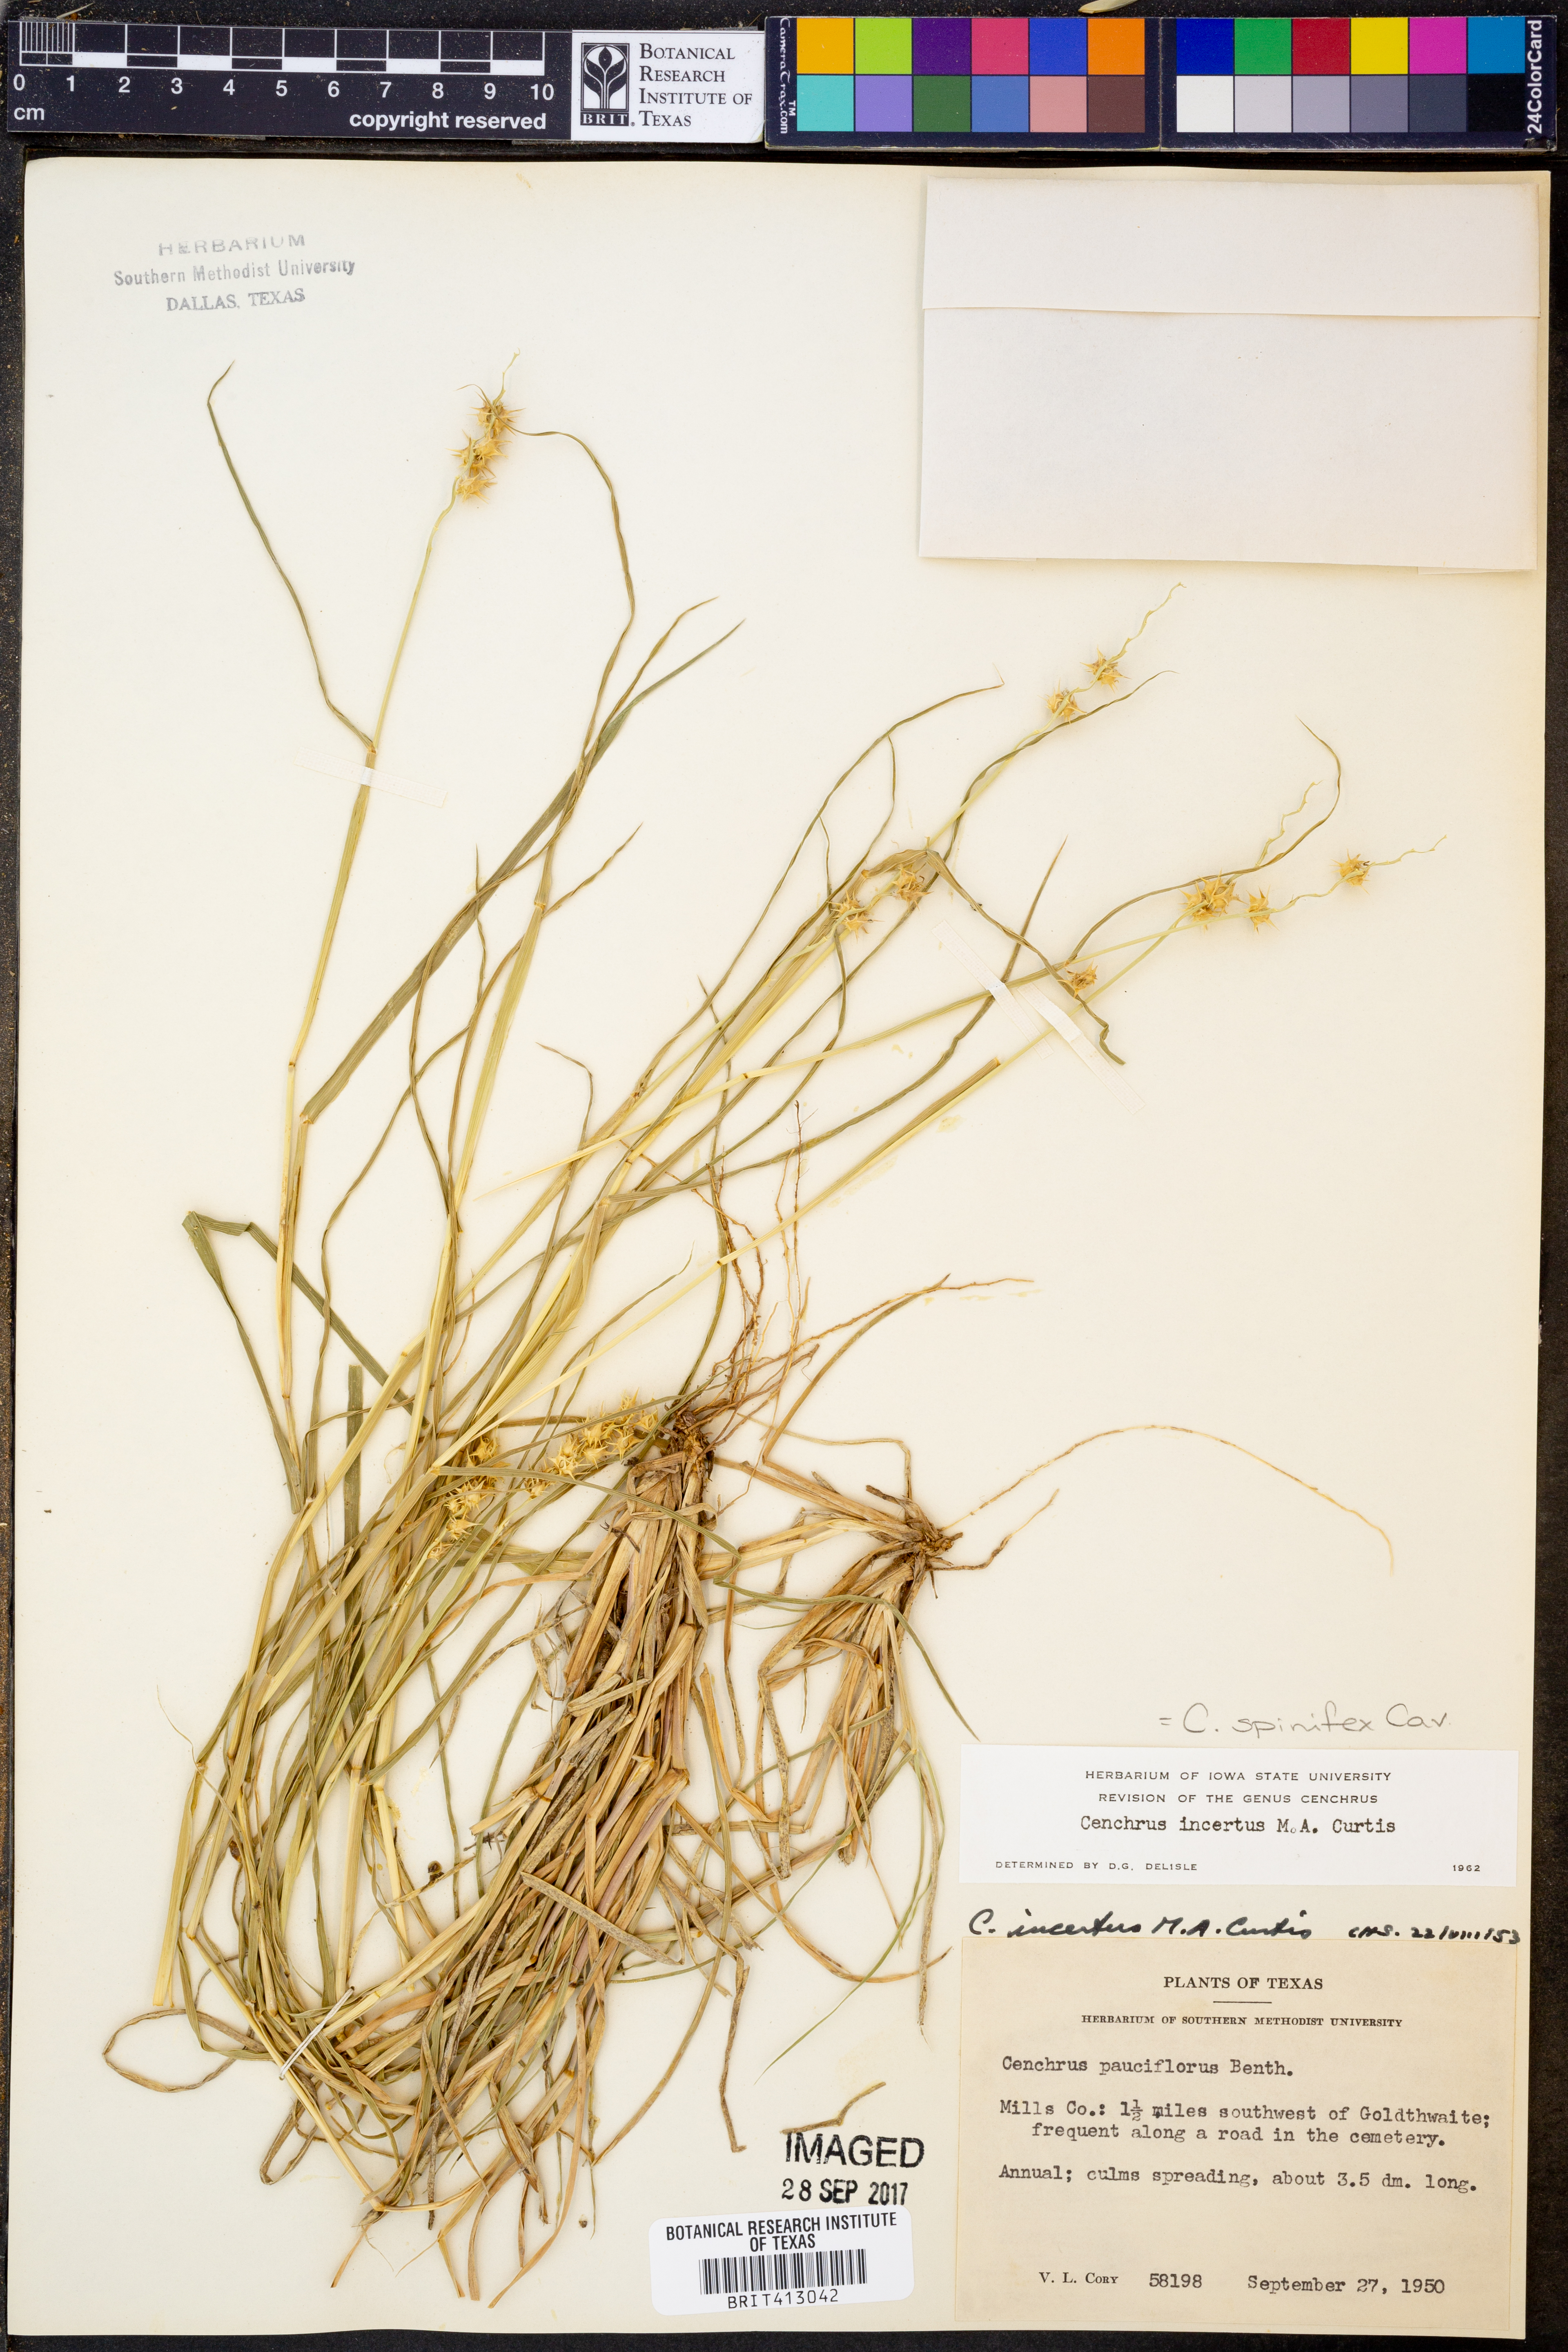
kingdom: Plantae
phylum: Tracheophyta
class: Liliopsida
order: Poales
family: Poaceae
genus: Cenchrus
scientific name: Cenchrus spinifex
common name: Coast sandbur
